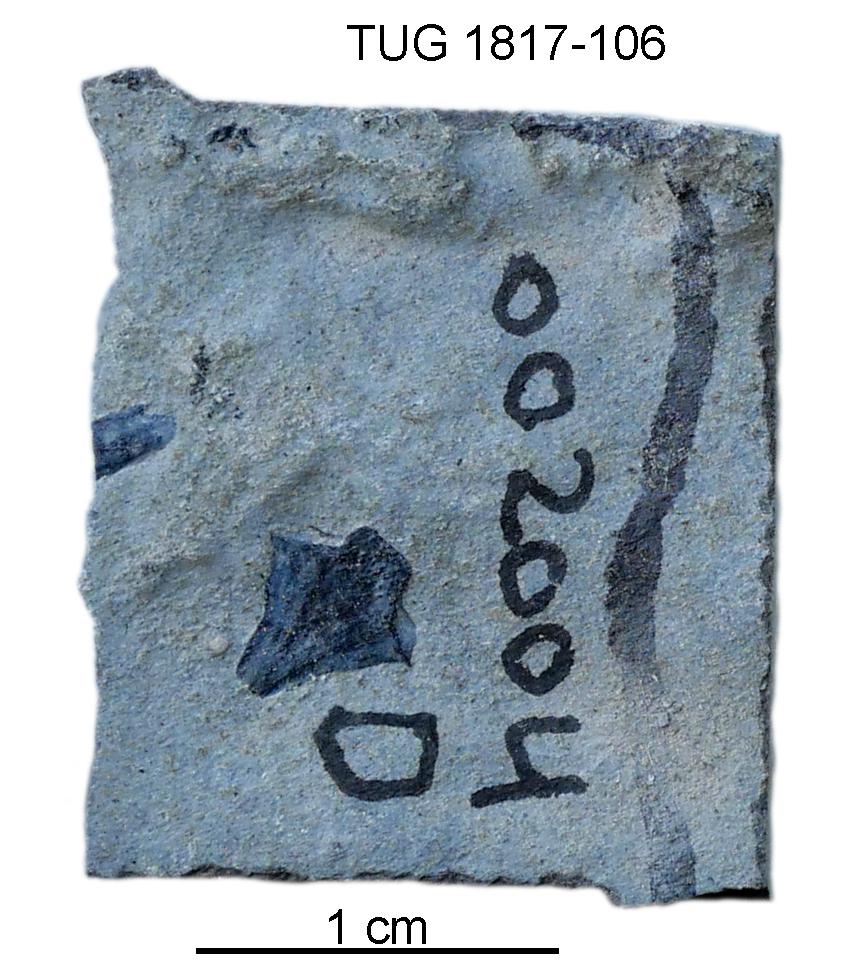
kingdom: Animalia
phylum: Chordata
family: Coccosteidae
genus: Millerosteus
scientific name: Millerosteus minor
